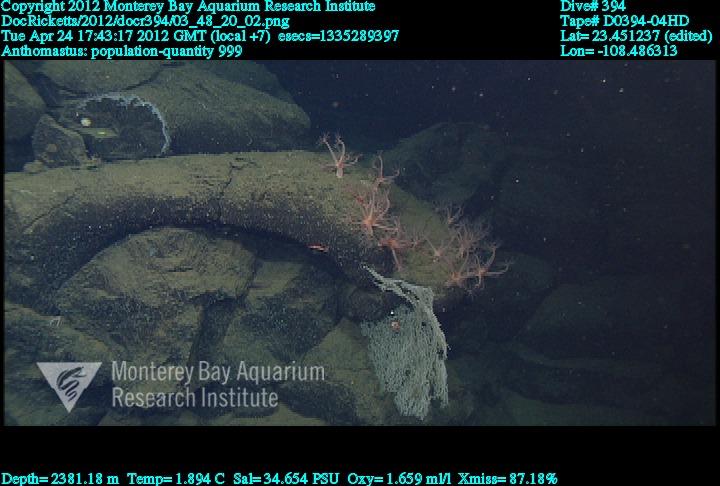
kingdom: Animalia
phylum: Cnidaria
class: Anthozoa
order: Scleralcyonacea
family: Coralliidae
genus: Heteropolypus
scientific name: Heteropolypus
